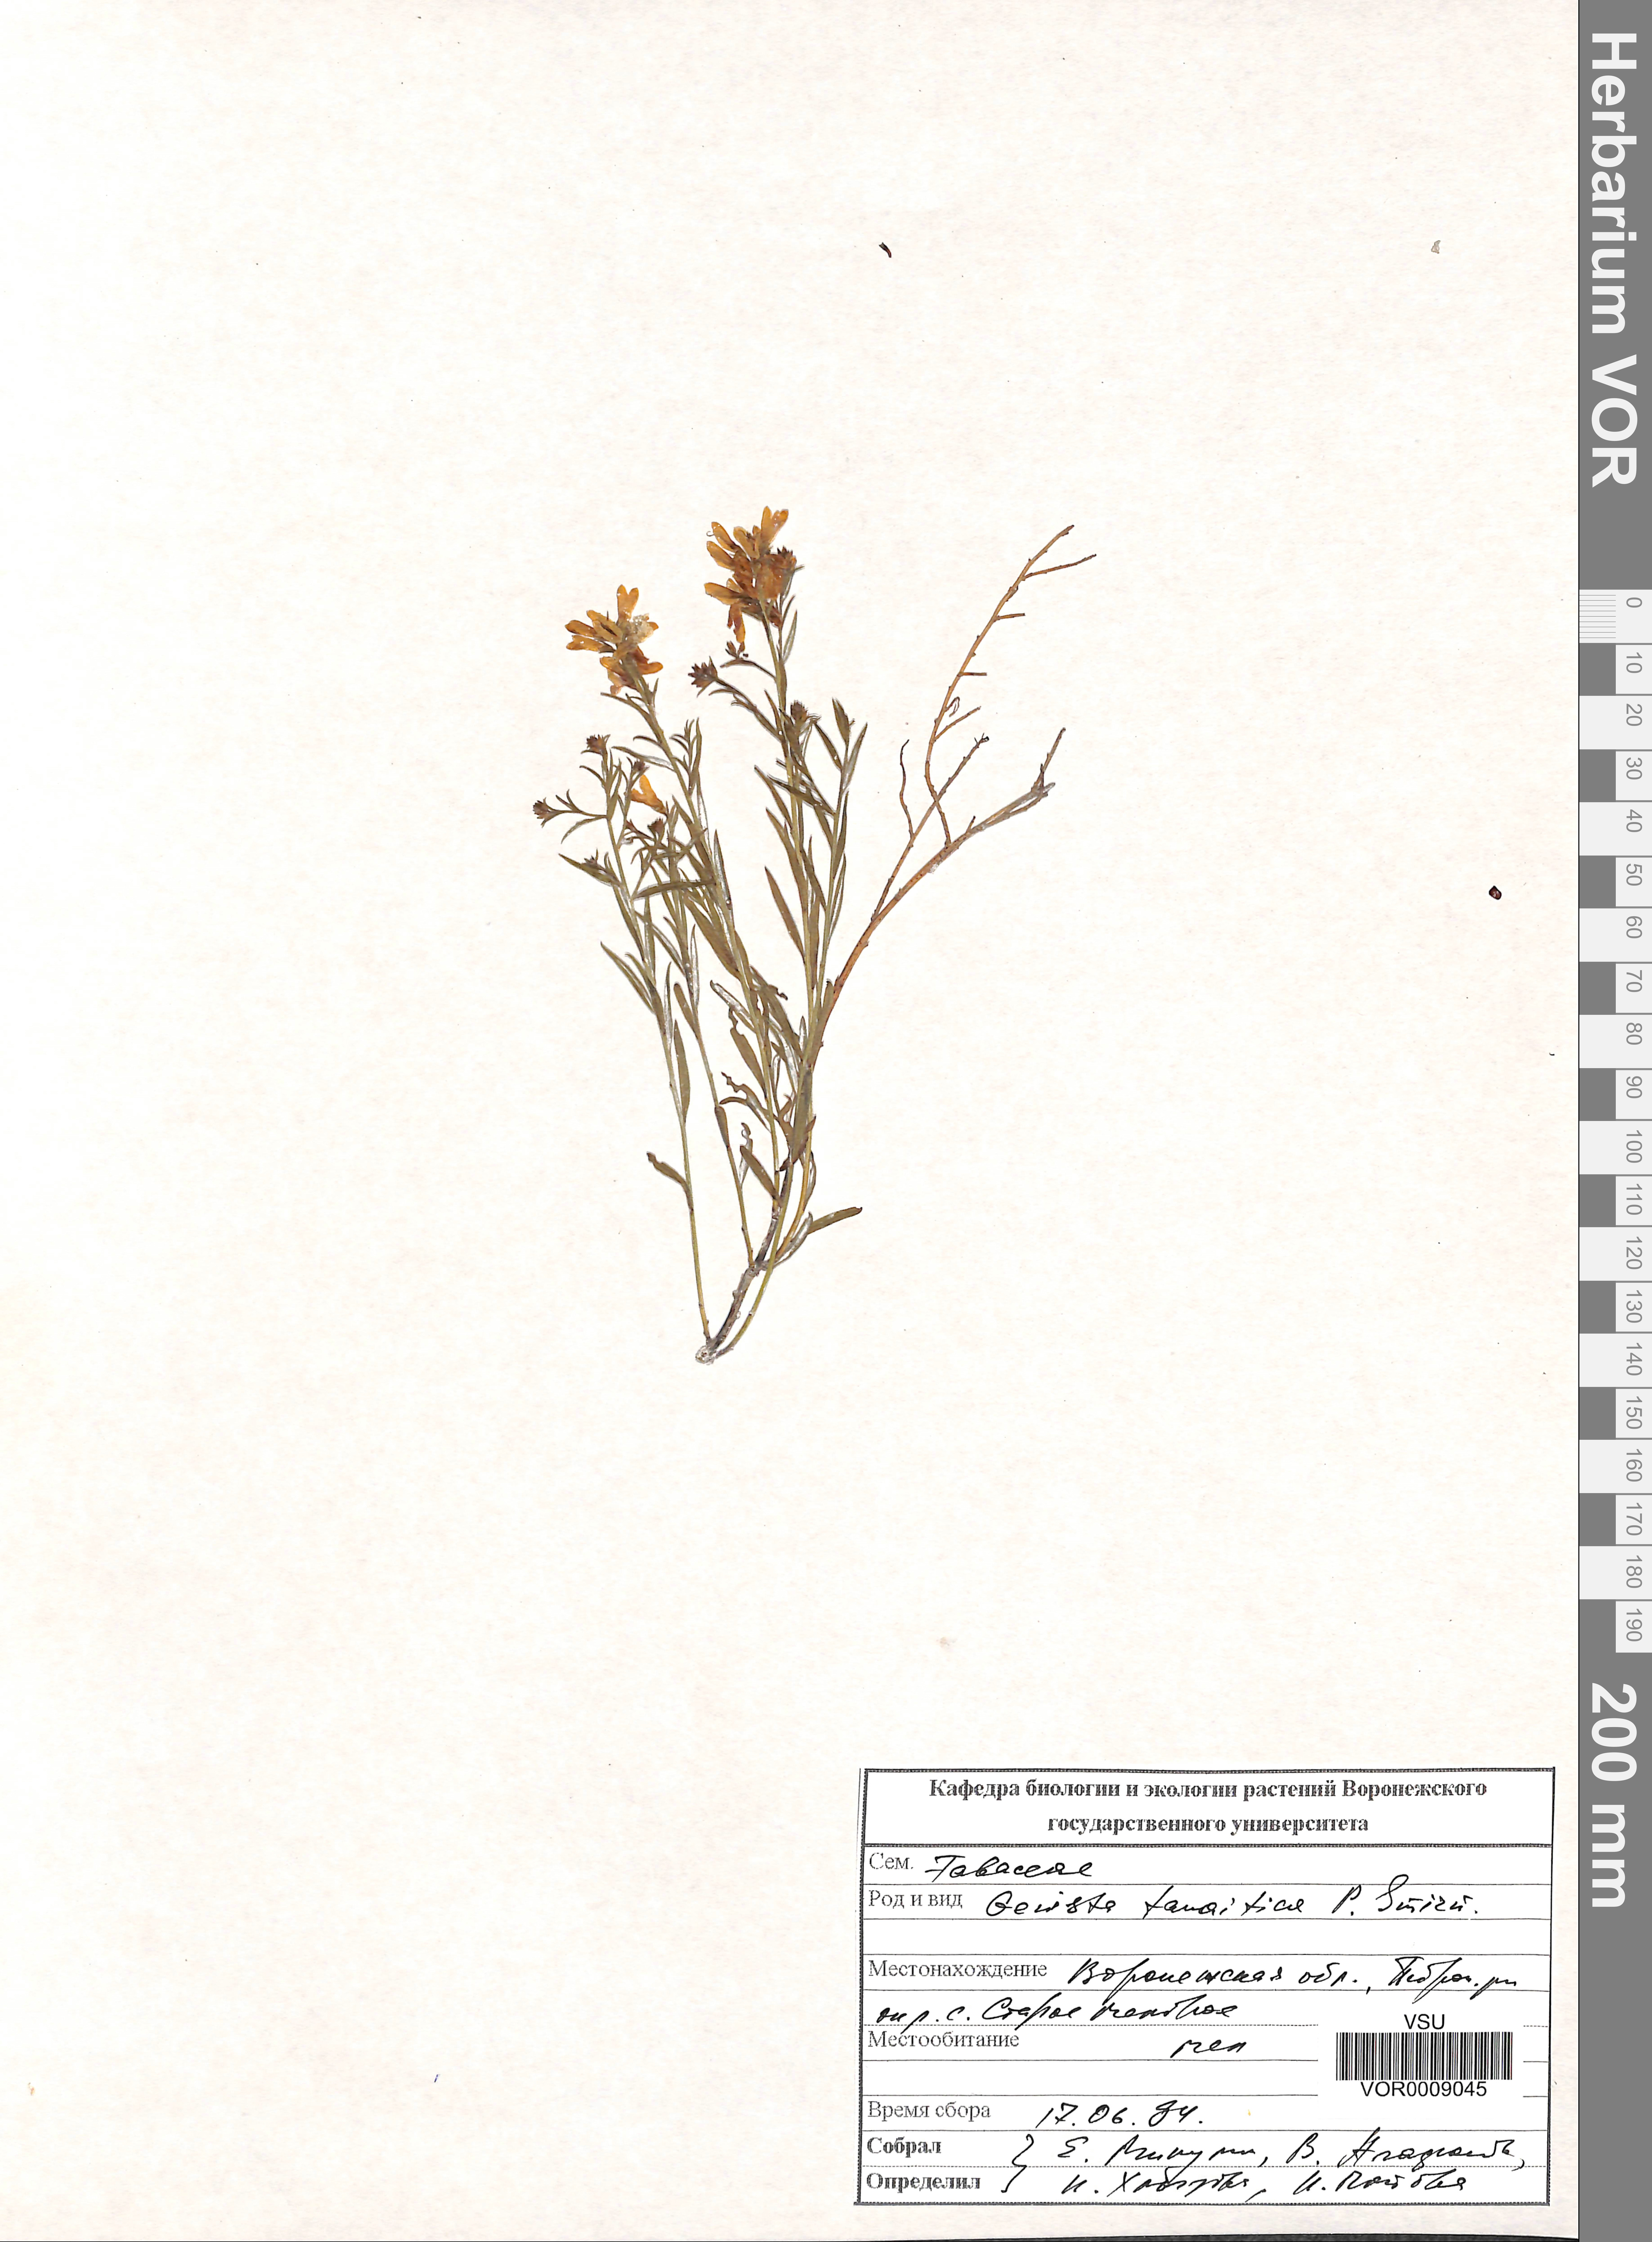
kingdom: Plantae
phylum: Tracheophyta
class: Magnoliopsida
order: Fabales
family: Fabaceae
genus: Genista
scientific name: Genista tinctoria
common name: Dyer's greenweed
